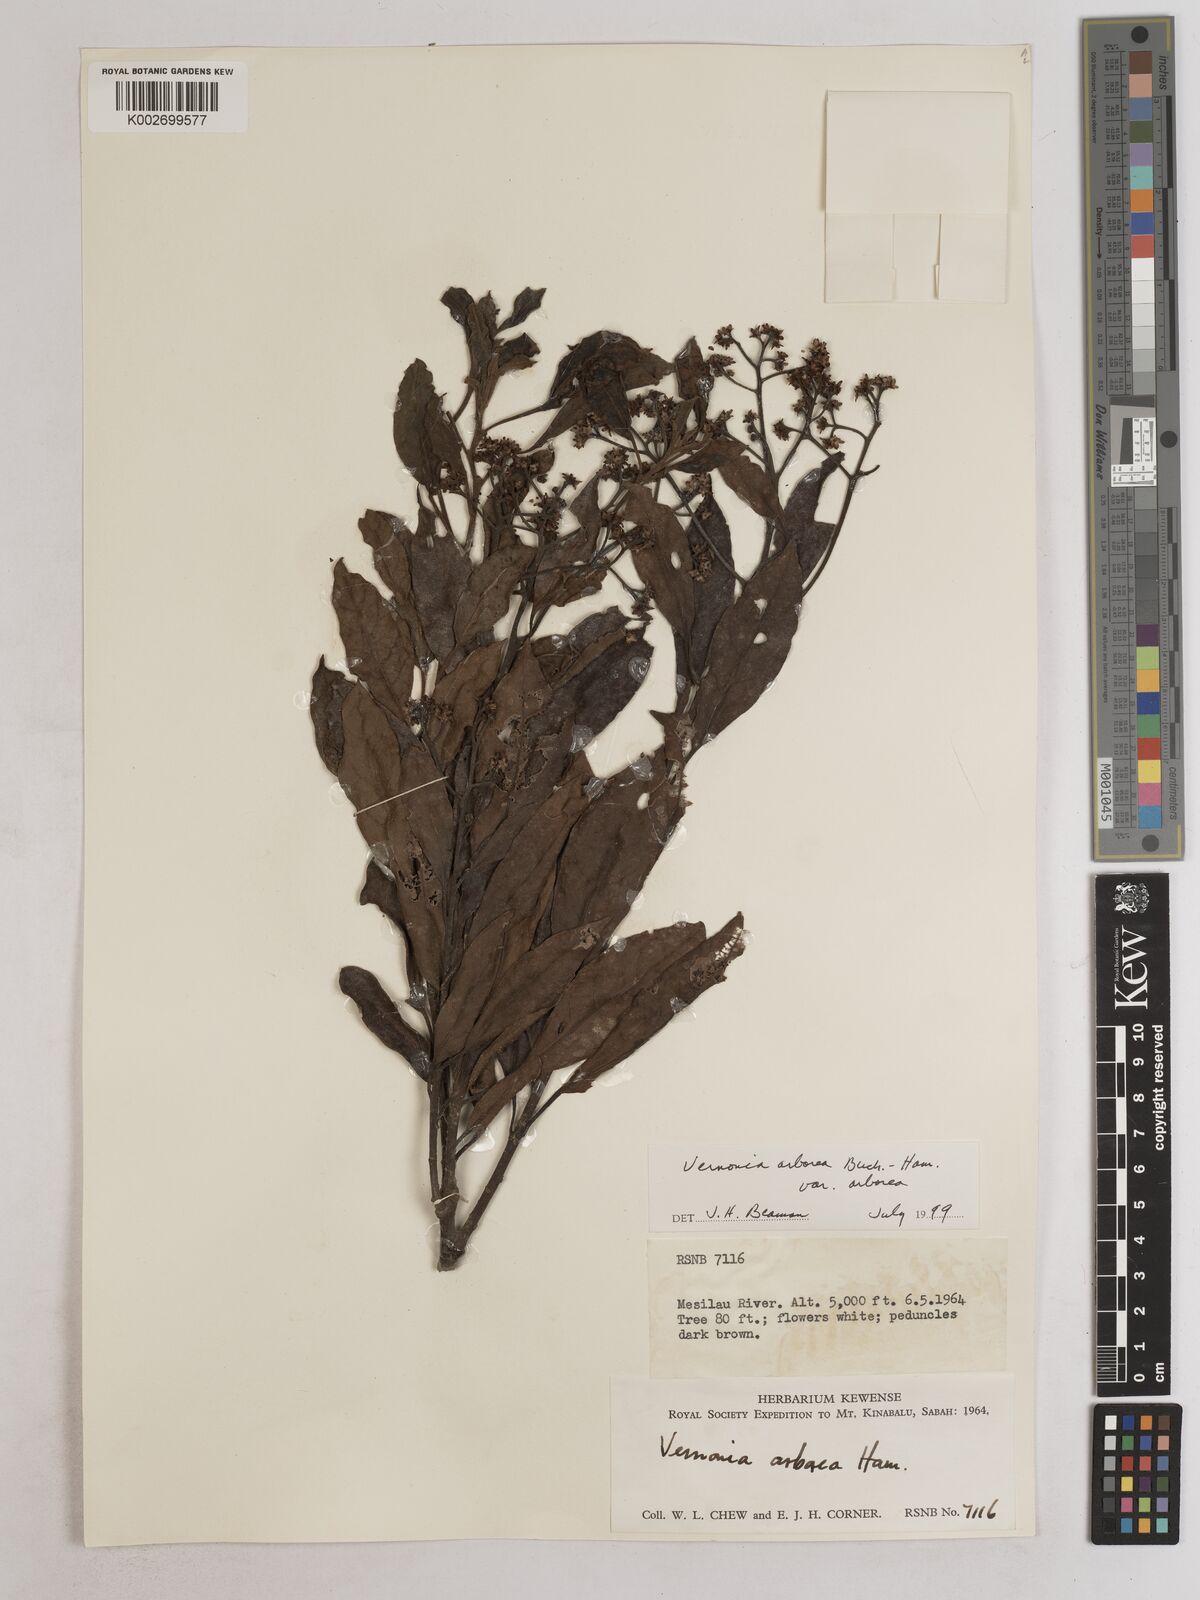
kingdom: Plantae
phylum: Tracheophyta
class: Magnoliopsida
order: Asterales
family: Asteraceae
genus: Strobocalyx
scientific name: Strobocalyx arborea
